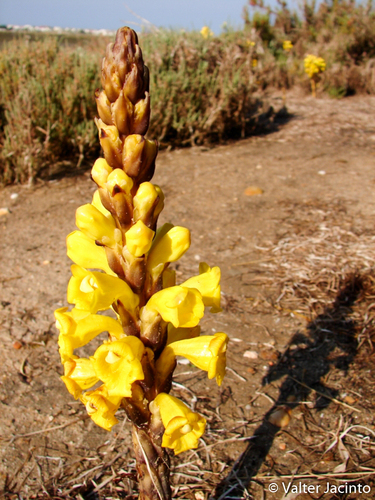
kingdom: Plantae
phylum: Tracheophyta
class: Magnoliopsida
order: Lamiales
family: Orobanchaceae
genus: Cistanche
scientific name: Cistanche phelypaea
